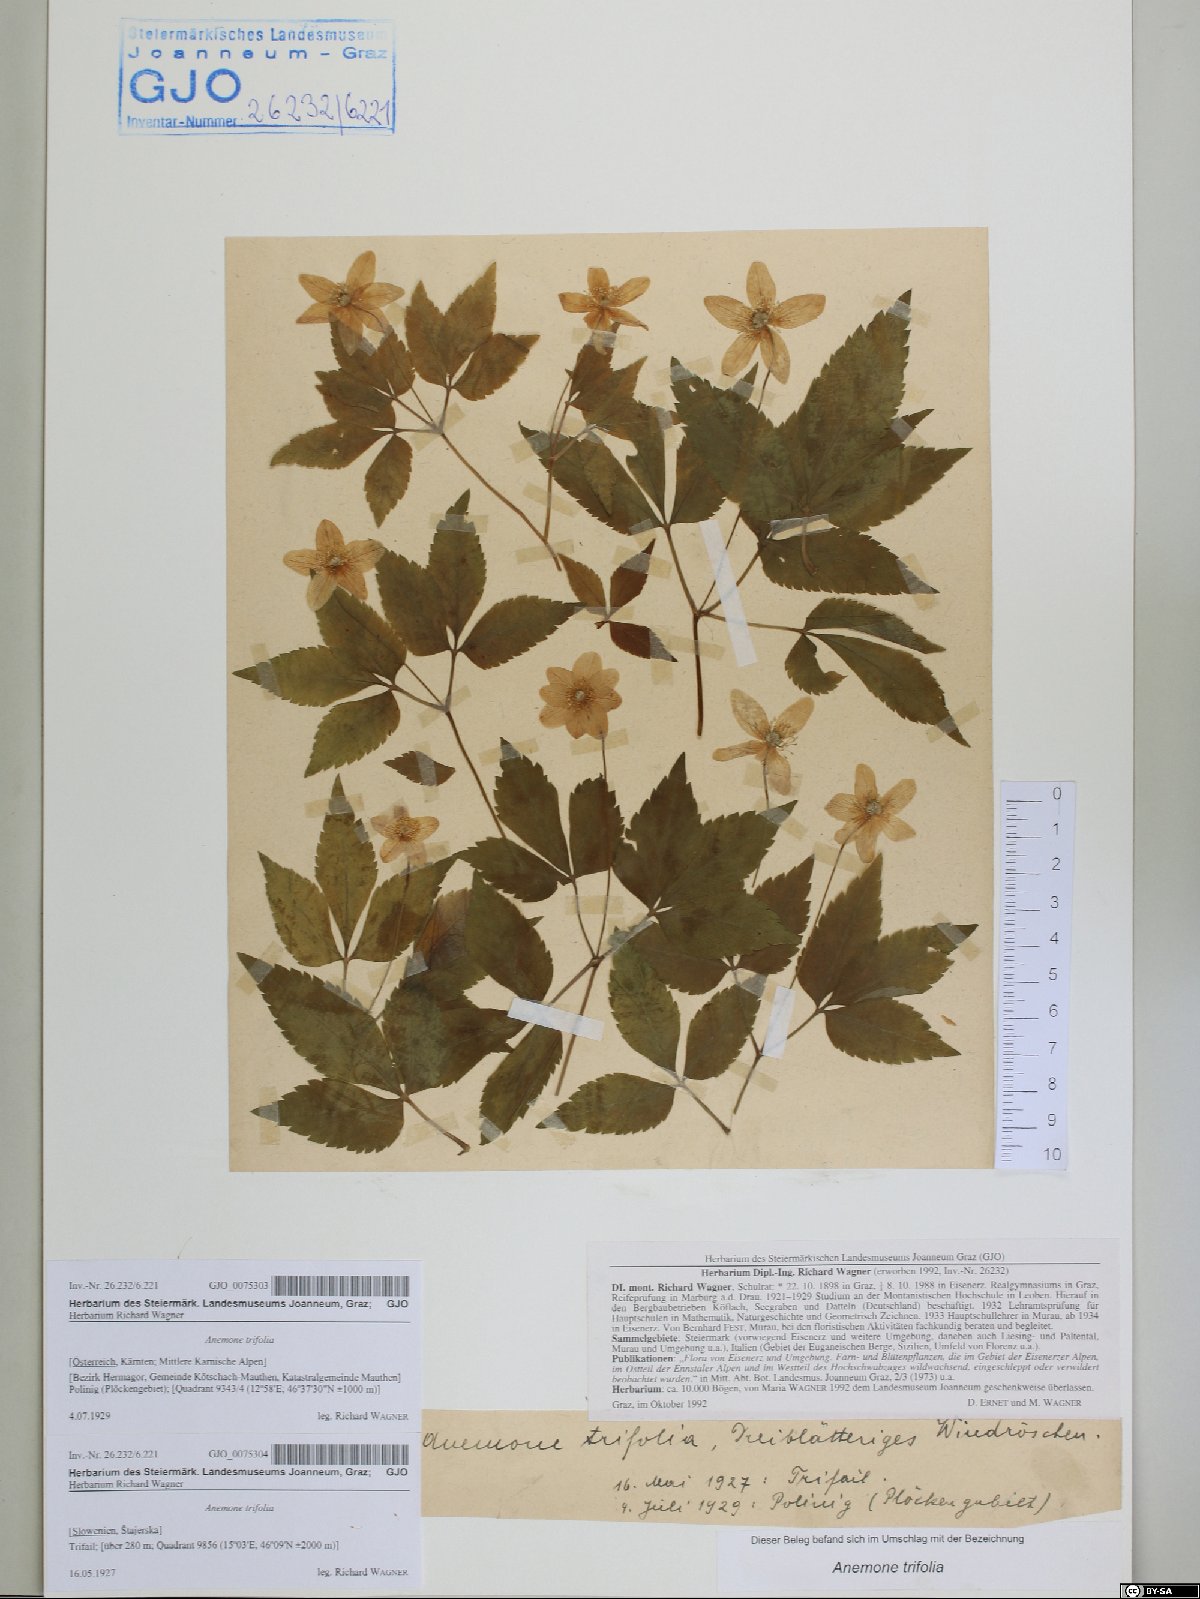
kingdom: Plantae
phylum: Tracheophyta
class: Magnoliopsida
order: Ranunculales
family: Ranunculaceae
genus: Anemone
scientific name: Anemone trifolia
